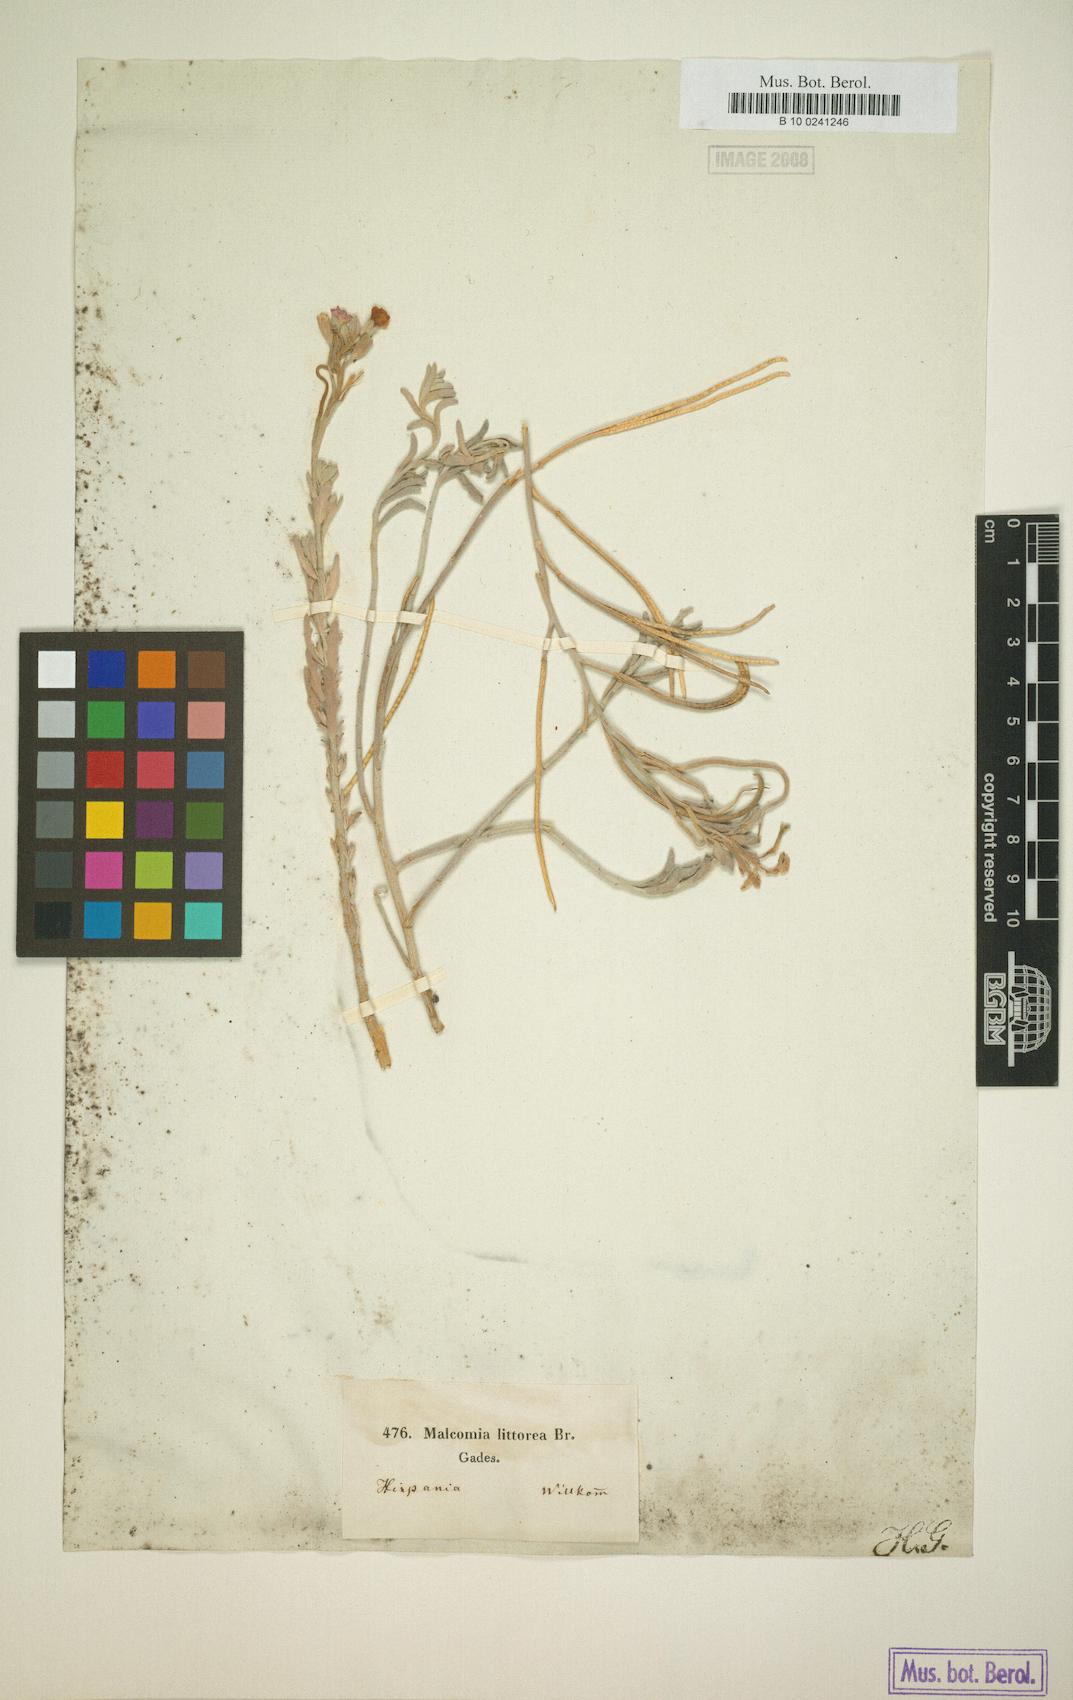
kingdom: Plantae
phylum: Tracheophyta
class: Magnoliopsida
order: Brassicales
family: Brassicaceae
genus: Marcuskochia
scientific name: Marcuskochia littorea
